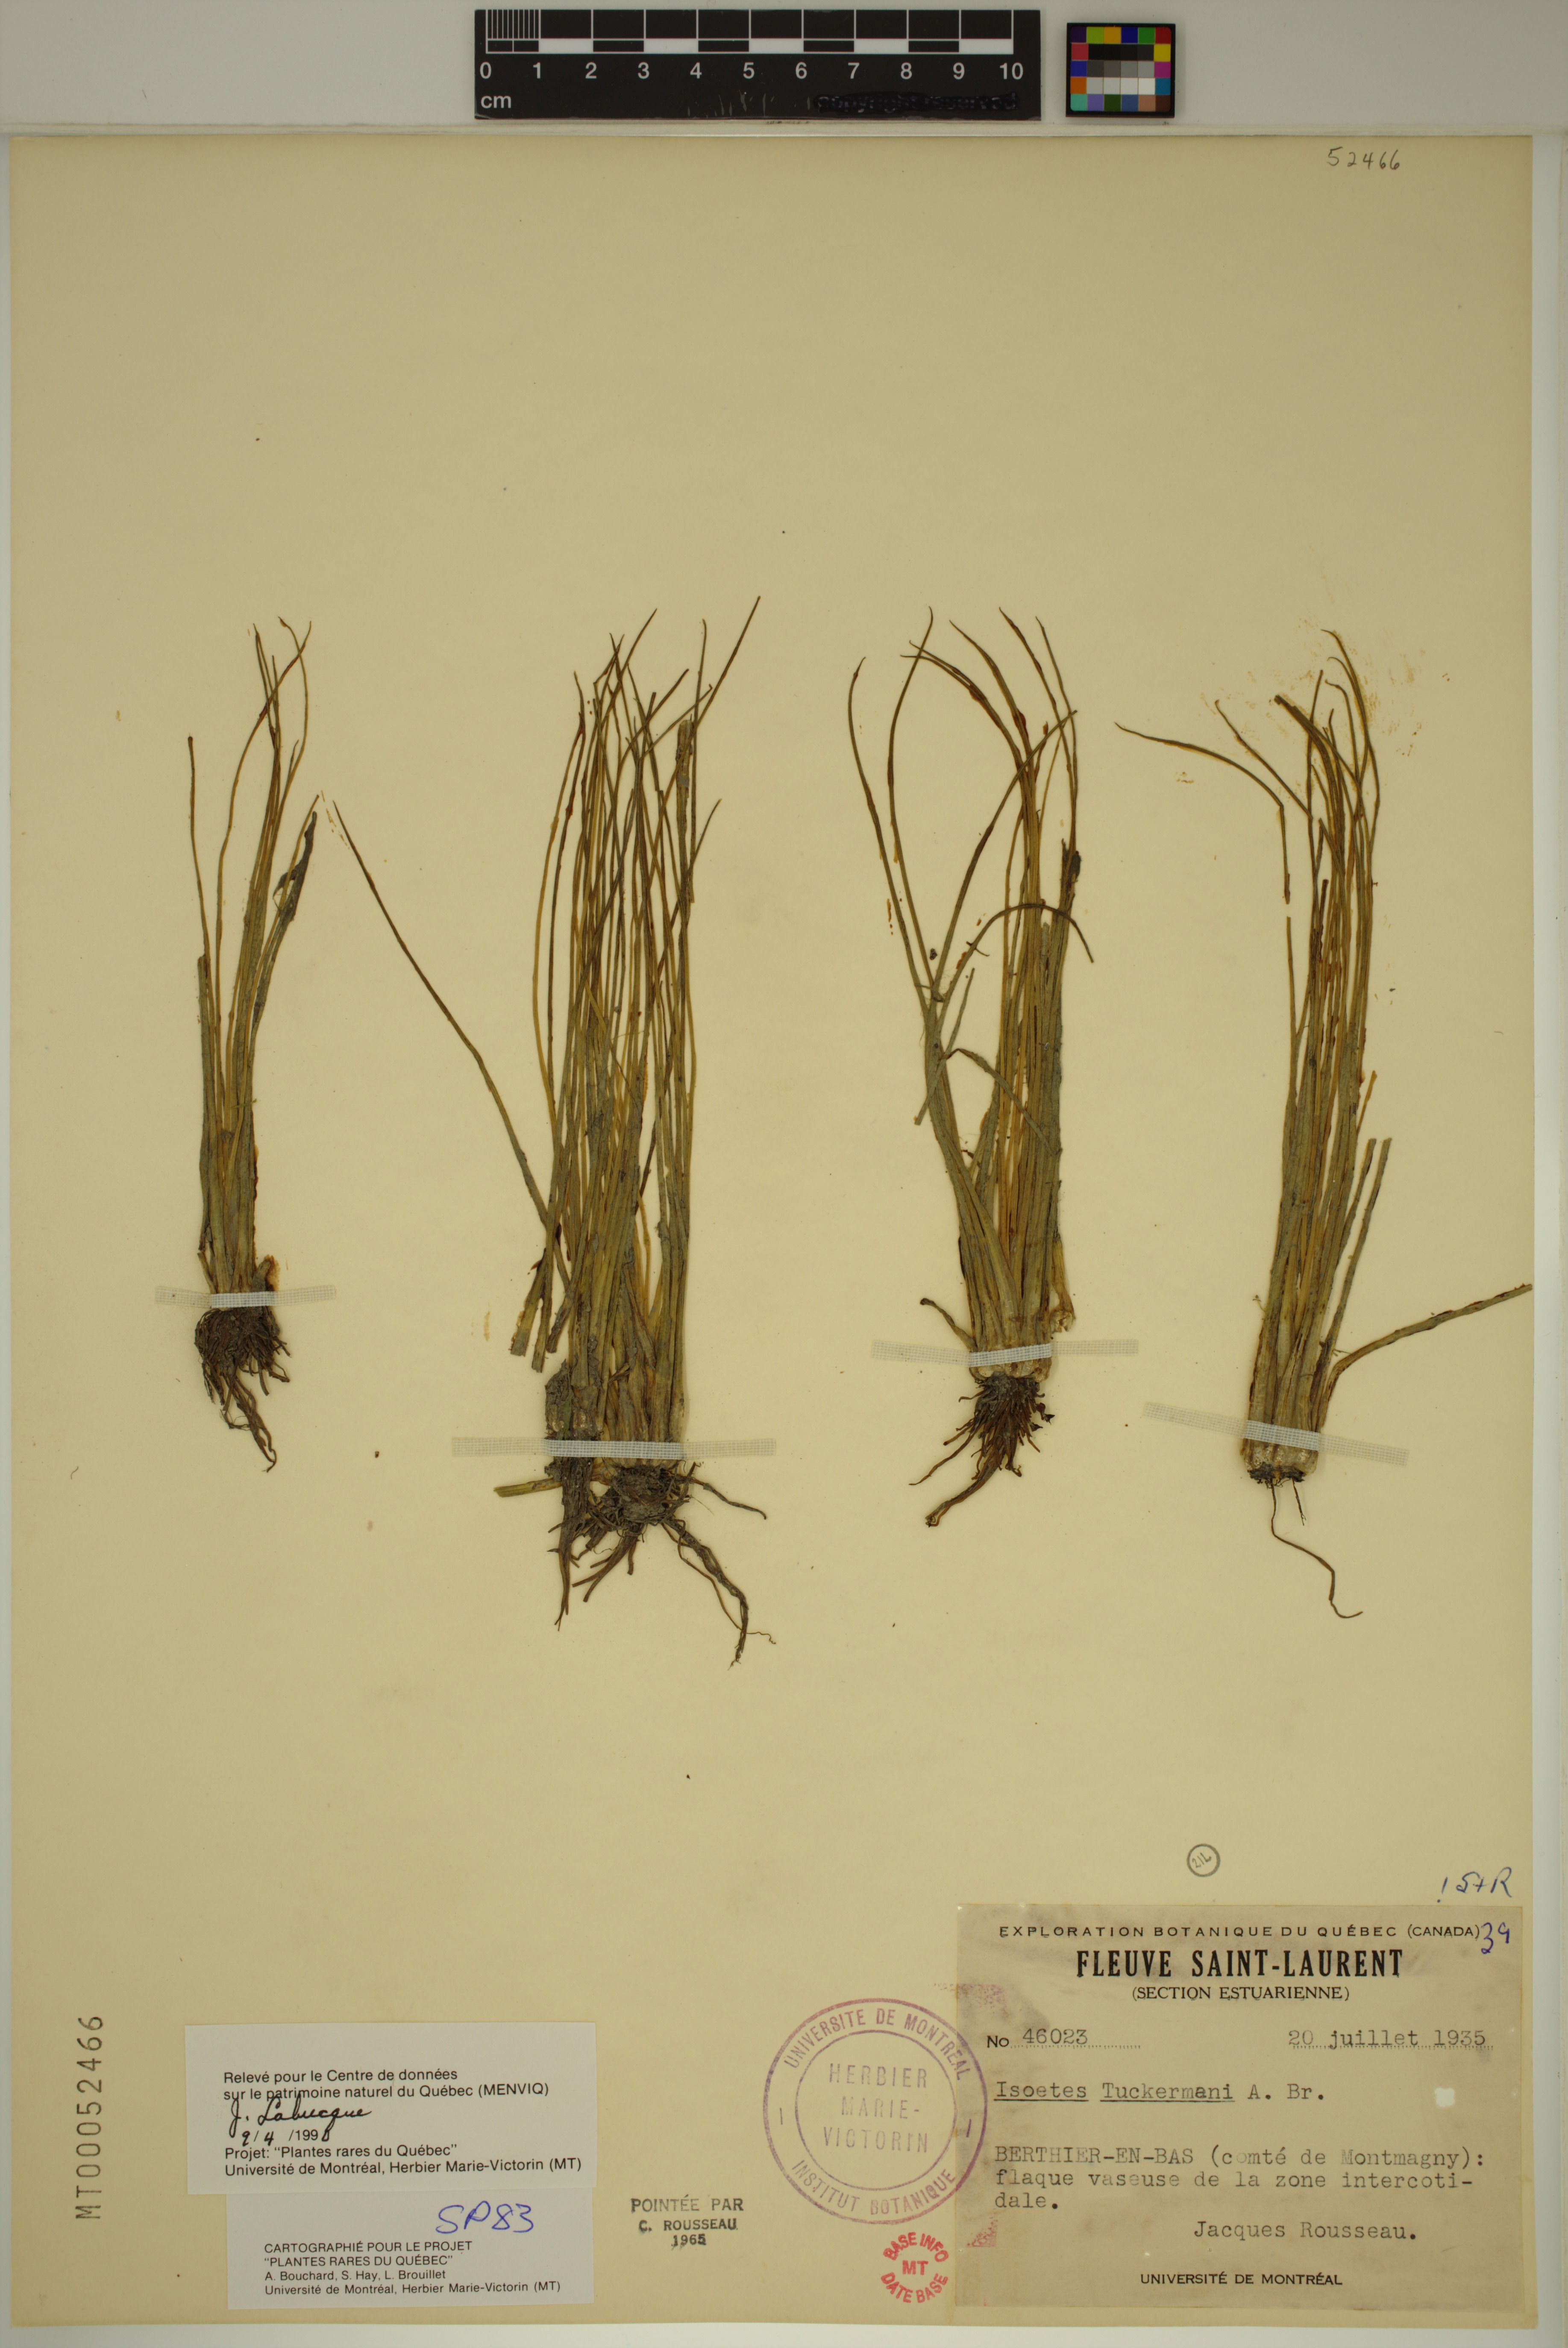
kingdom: Plantae
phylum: Tracheophyta
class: Lycopodiopsida
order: Isoetales
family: Isoetaceae
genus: Isoetes
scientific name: Isoetes laurentiana
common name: St. lawrence quillwort
